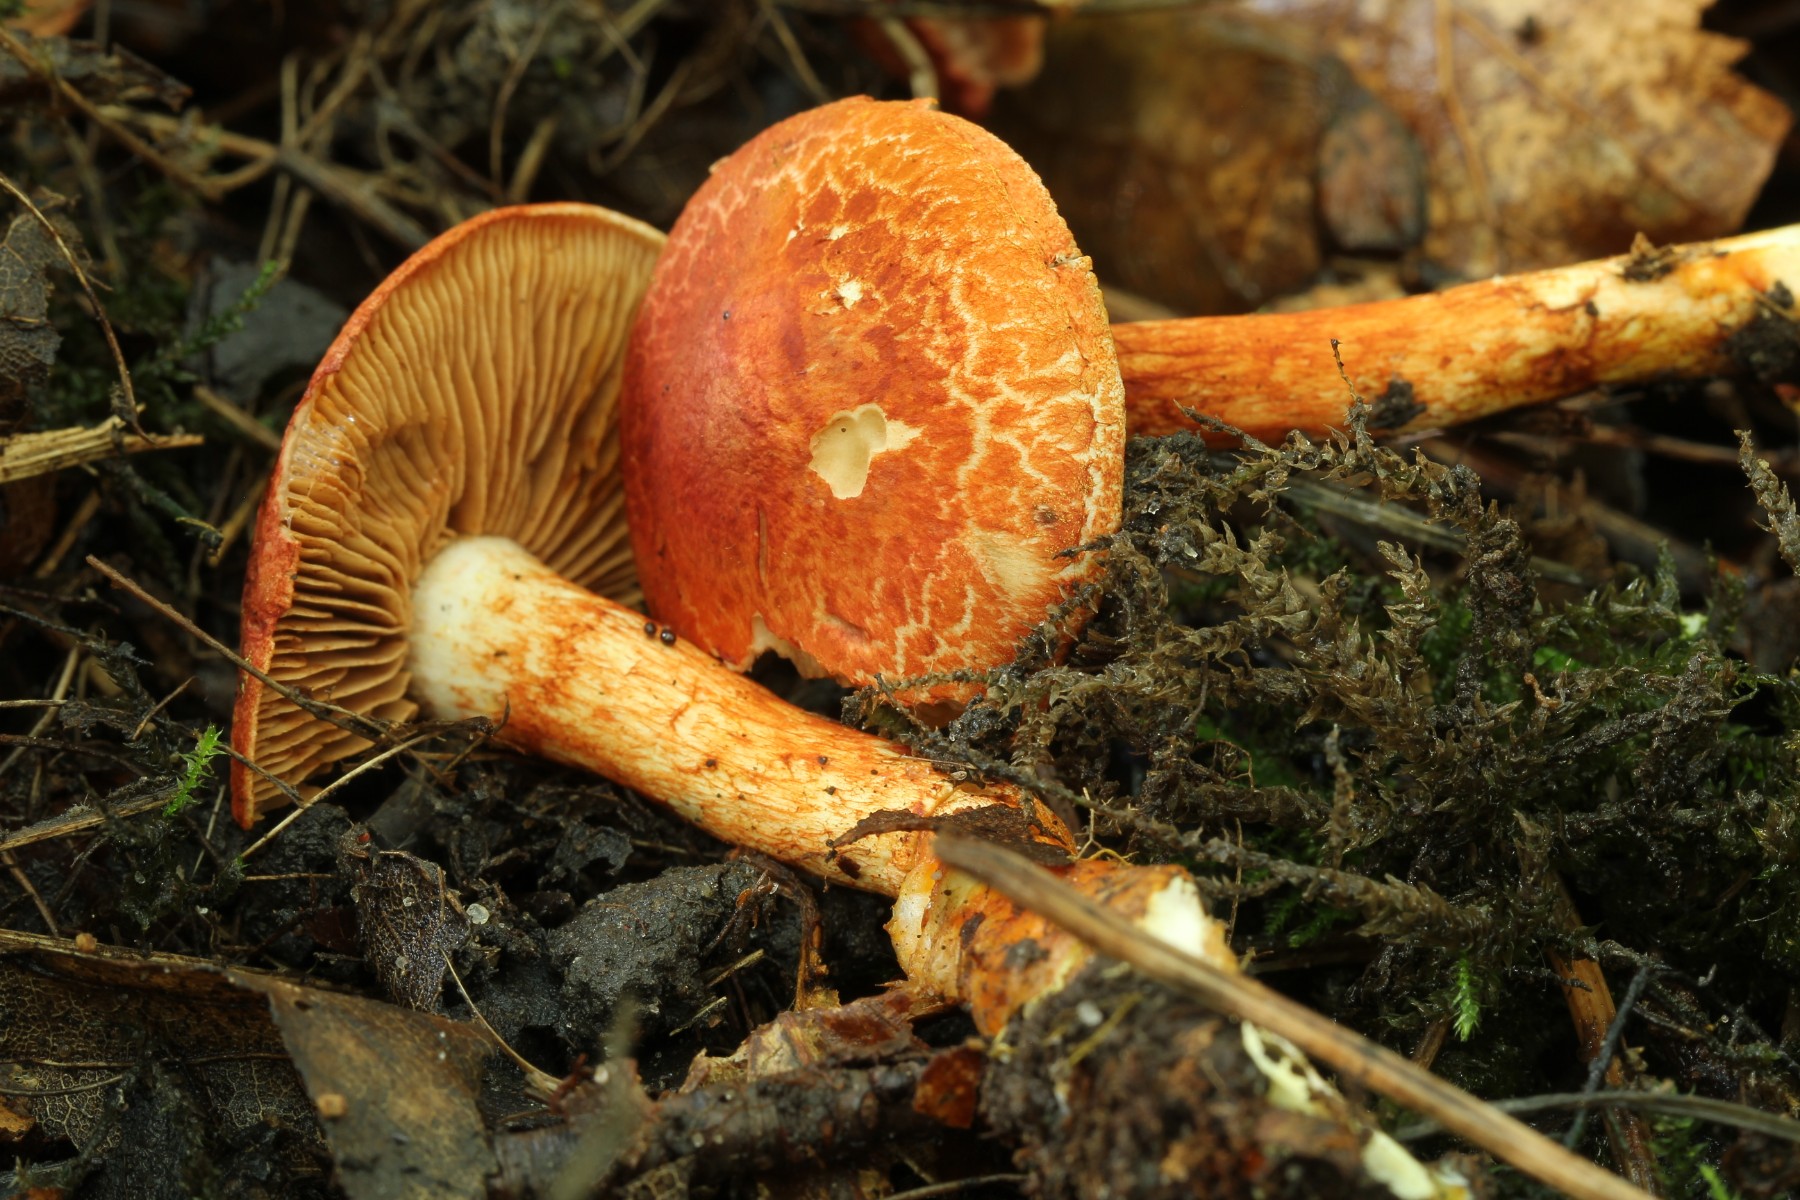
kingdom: Fungi
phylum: Basidiomycota
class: Agaricomycetes
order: Agaricales
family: Cortinariaceae
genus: Cortinarius
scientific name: Cortinarius bolaris
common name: cinnoberskællet slørhat
